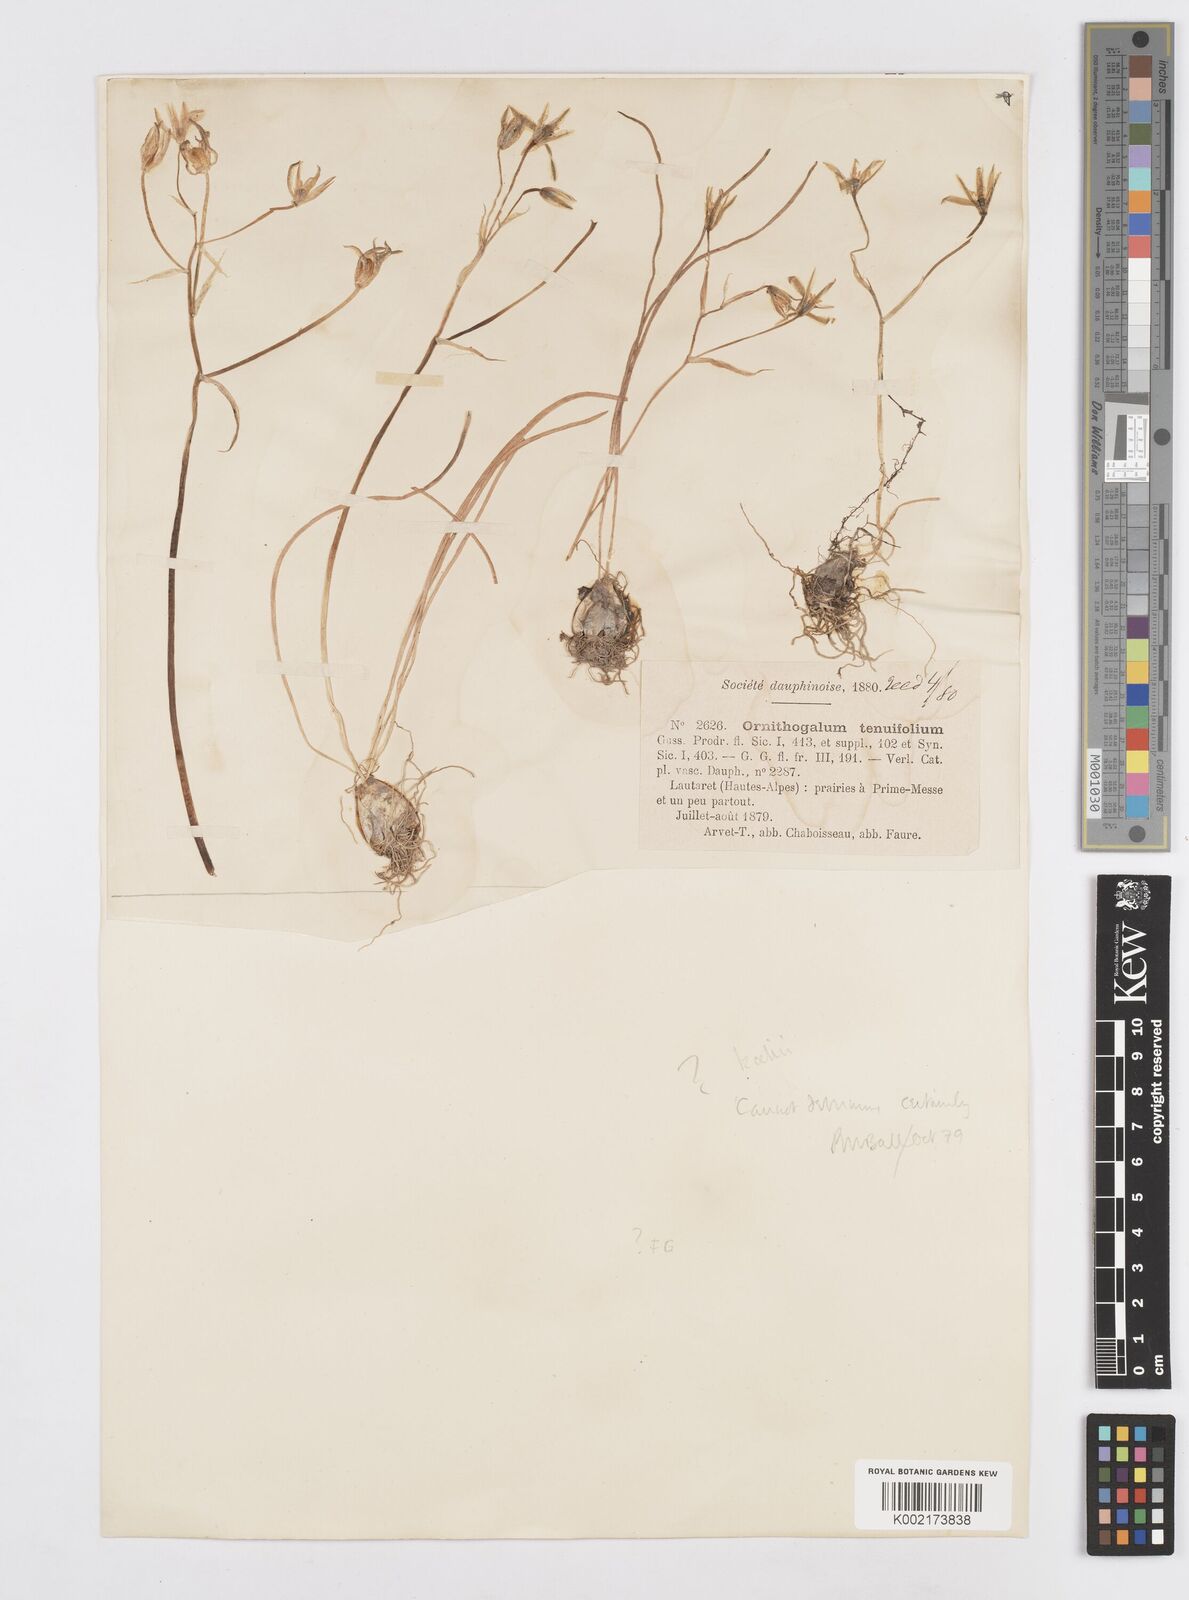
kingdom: Plantae
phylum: Tracheophyta
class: Liliopsida
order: Asparagales
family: Asparagaceae
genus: Ornithogalum
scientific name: Ornithogalum orthophyllum
